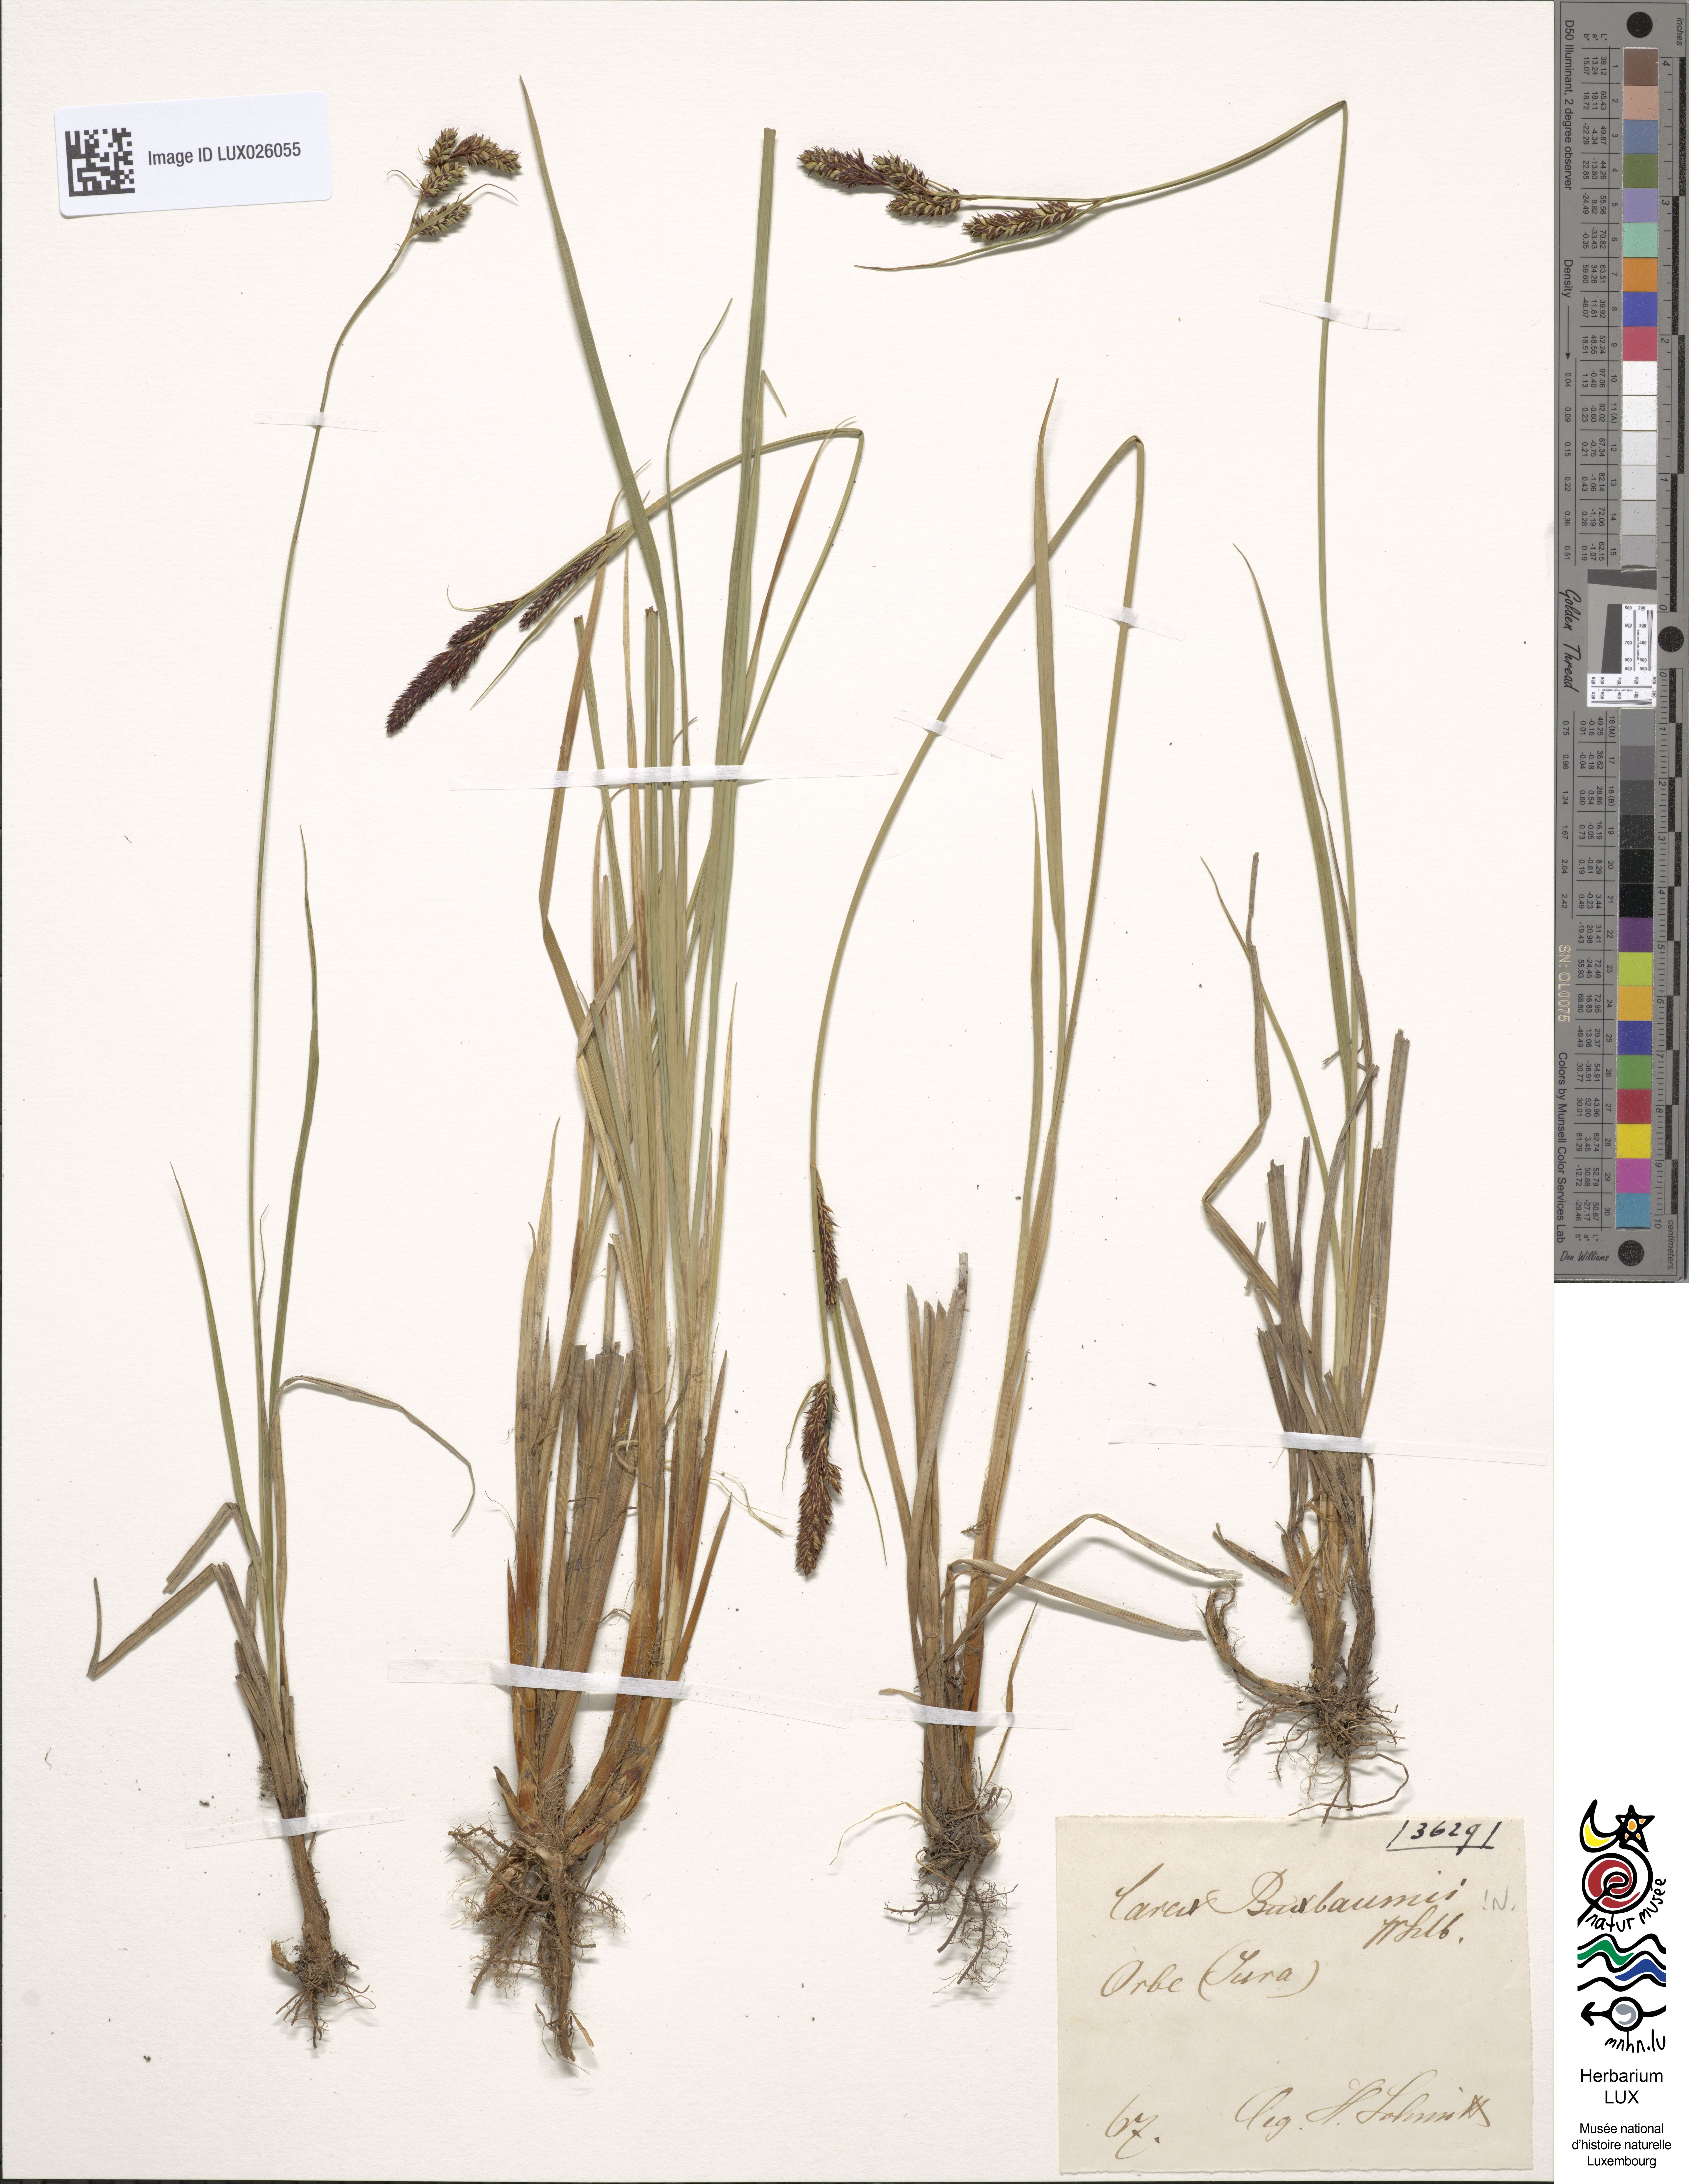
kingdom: Plantae
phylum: Tracheophyta
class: Liliopsida
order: Poales
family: Cyperaceae
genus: Carex
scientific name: Carex buxbaumii
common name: Club sedge
